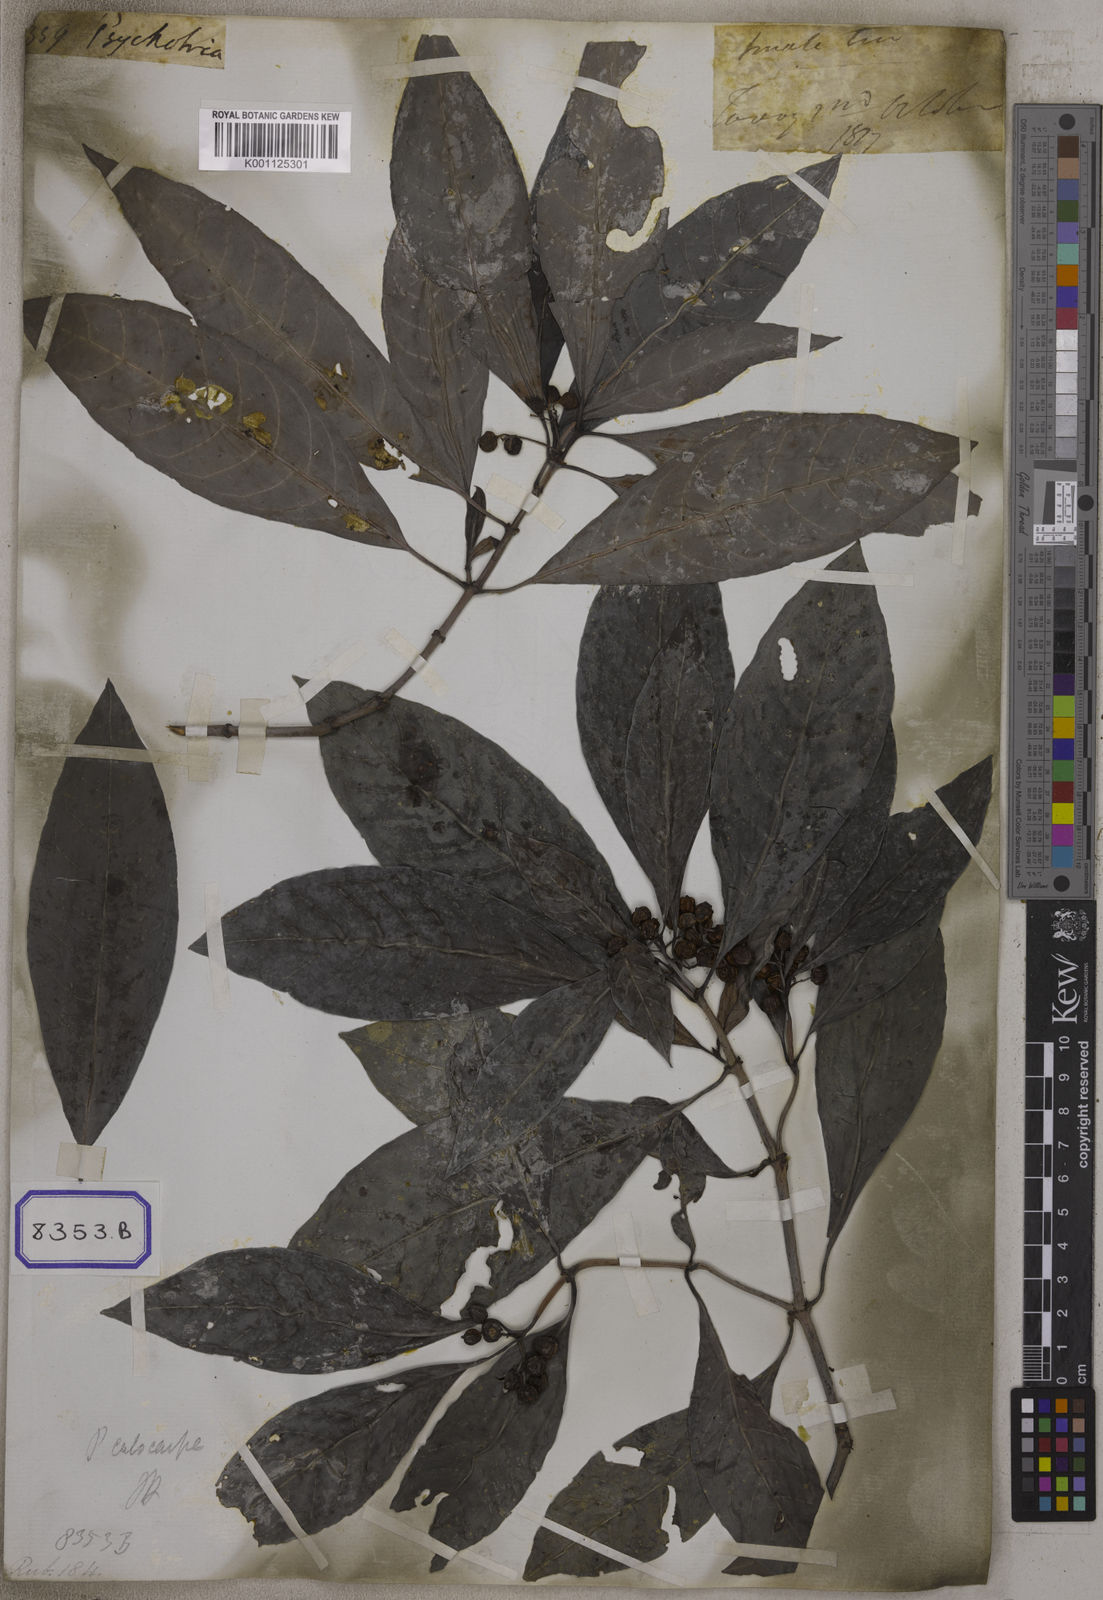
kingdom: Plantae
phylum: Tracheophyta
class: Magnoliopsida
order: Gentianales
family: Rubiaceae
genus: Psychotria
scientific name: Psychotria calocarpa
